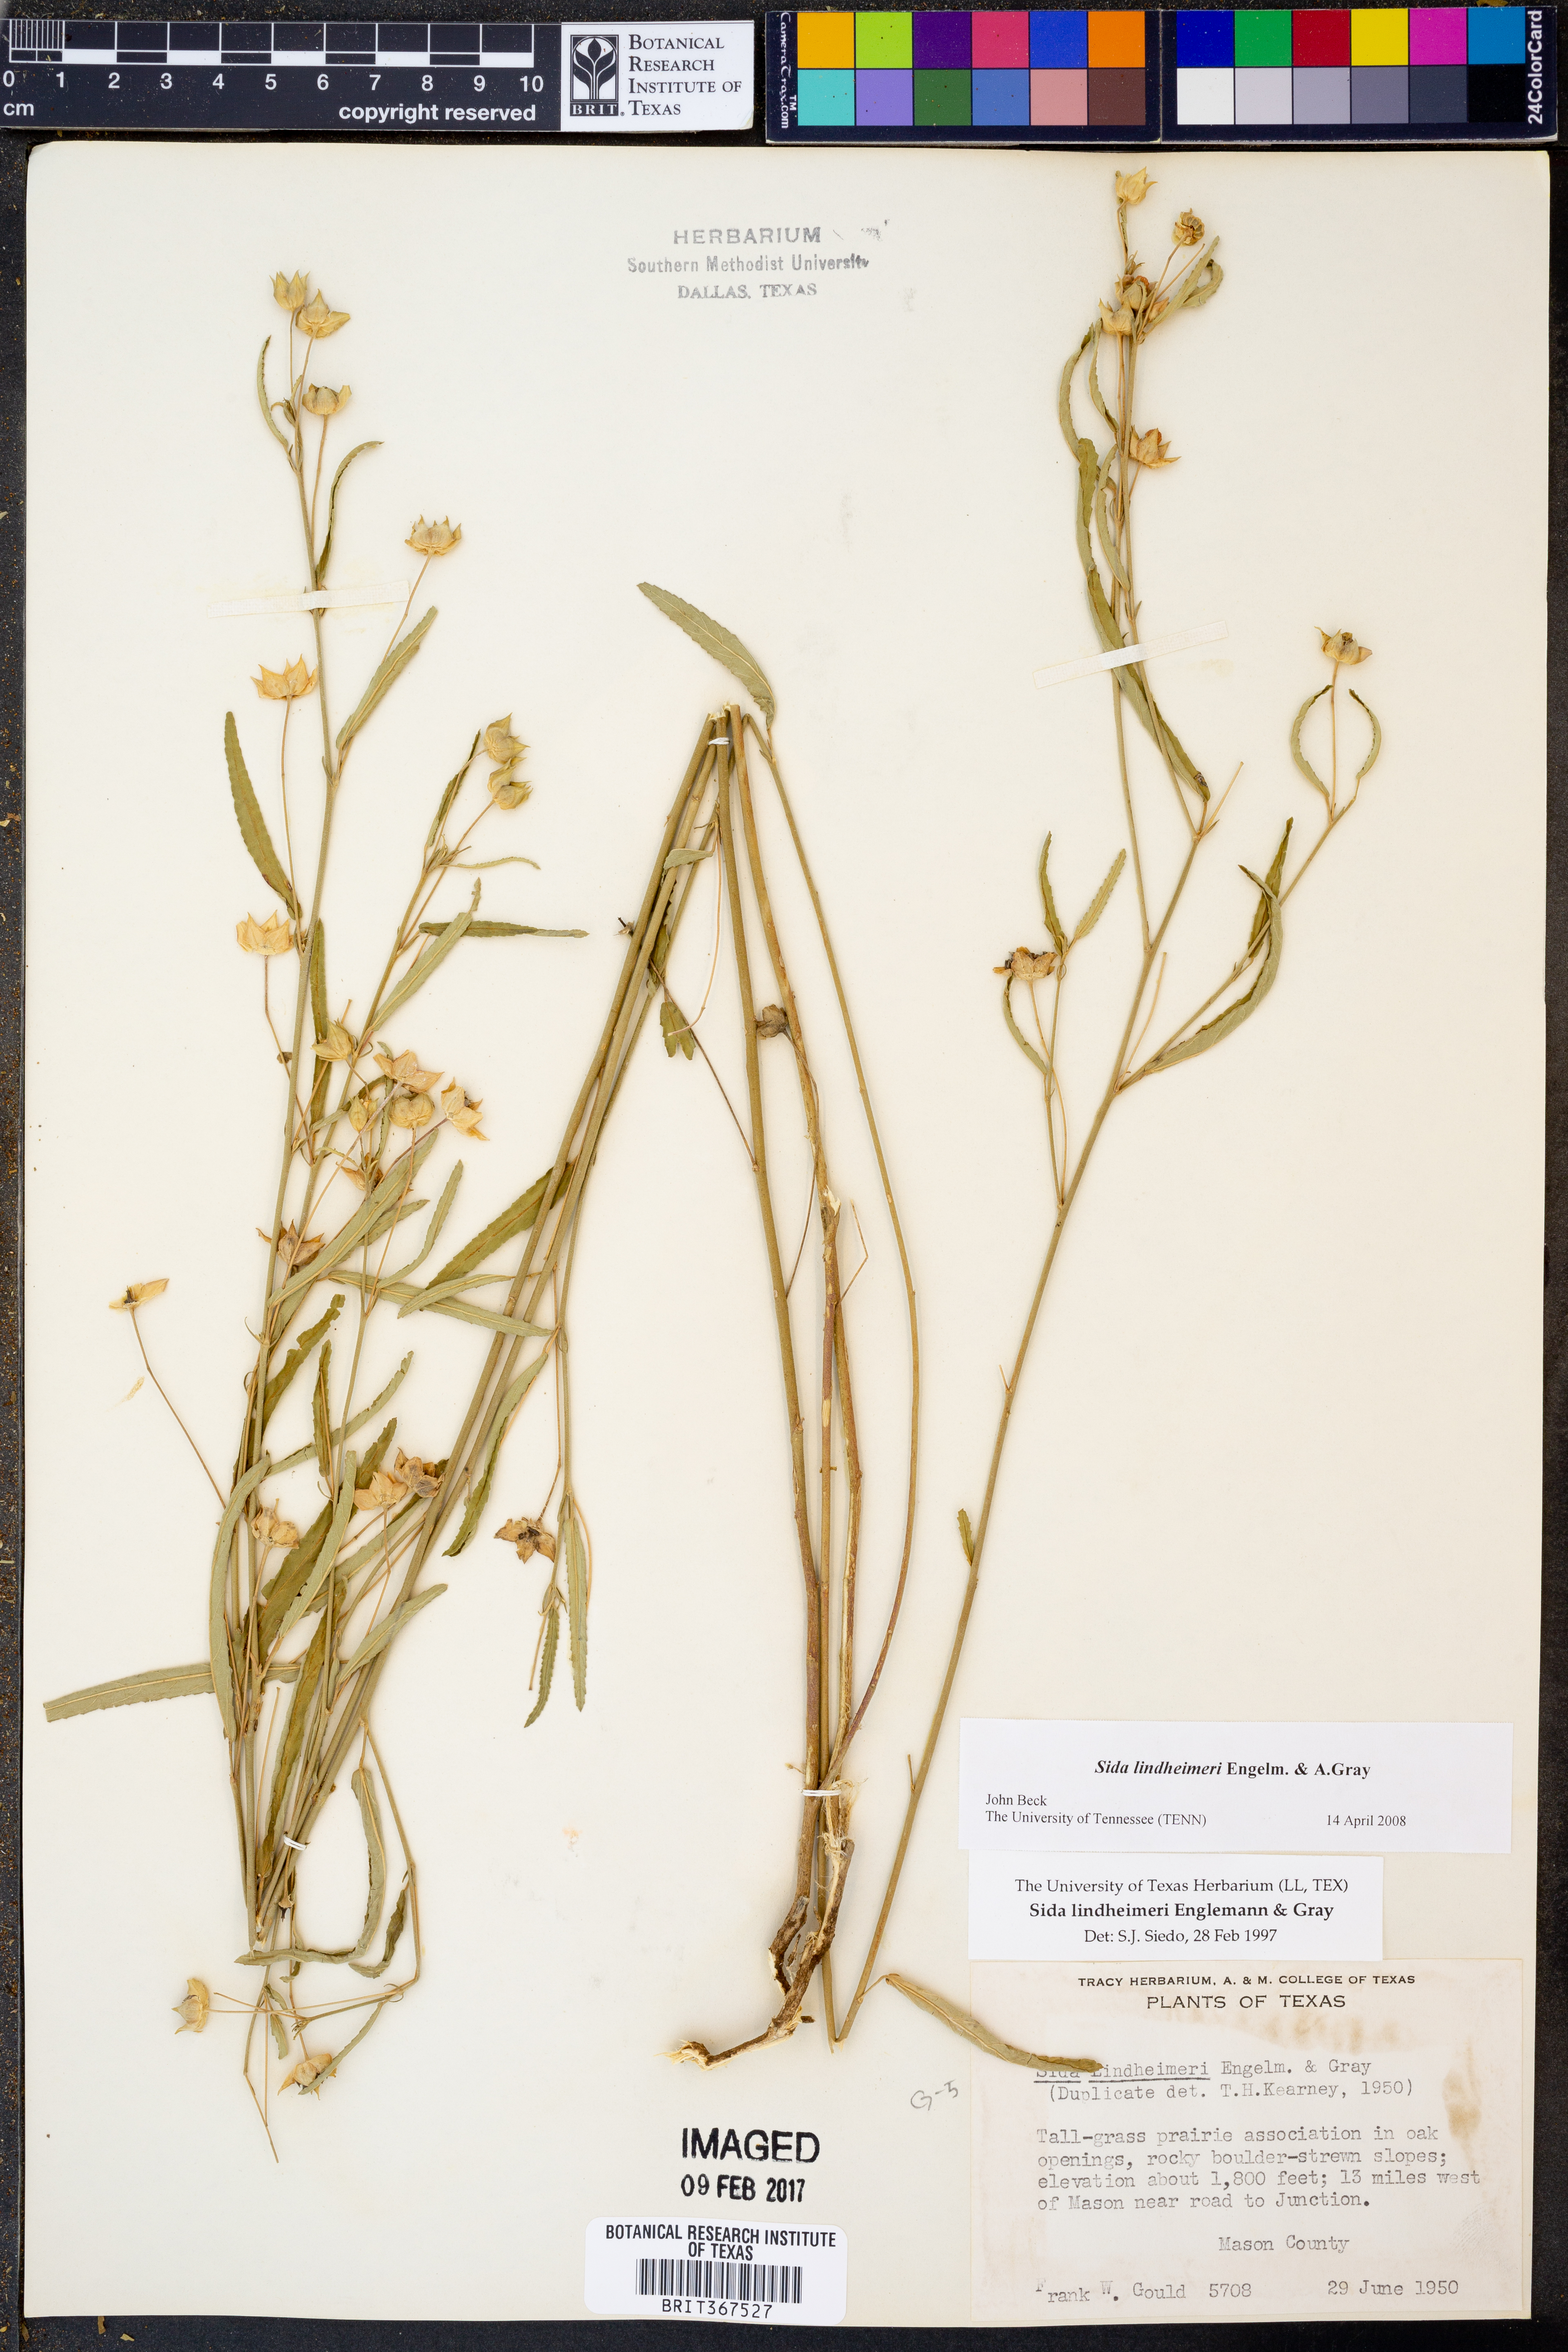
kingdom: Plantae
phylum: Tracheophyta
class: Magnoliopsida
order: Malvales
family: Malvaceae
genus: Sida
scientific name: Sida lindheimeri
